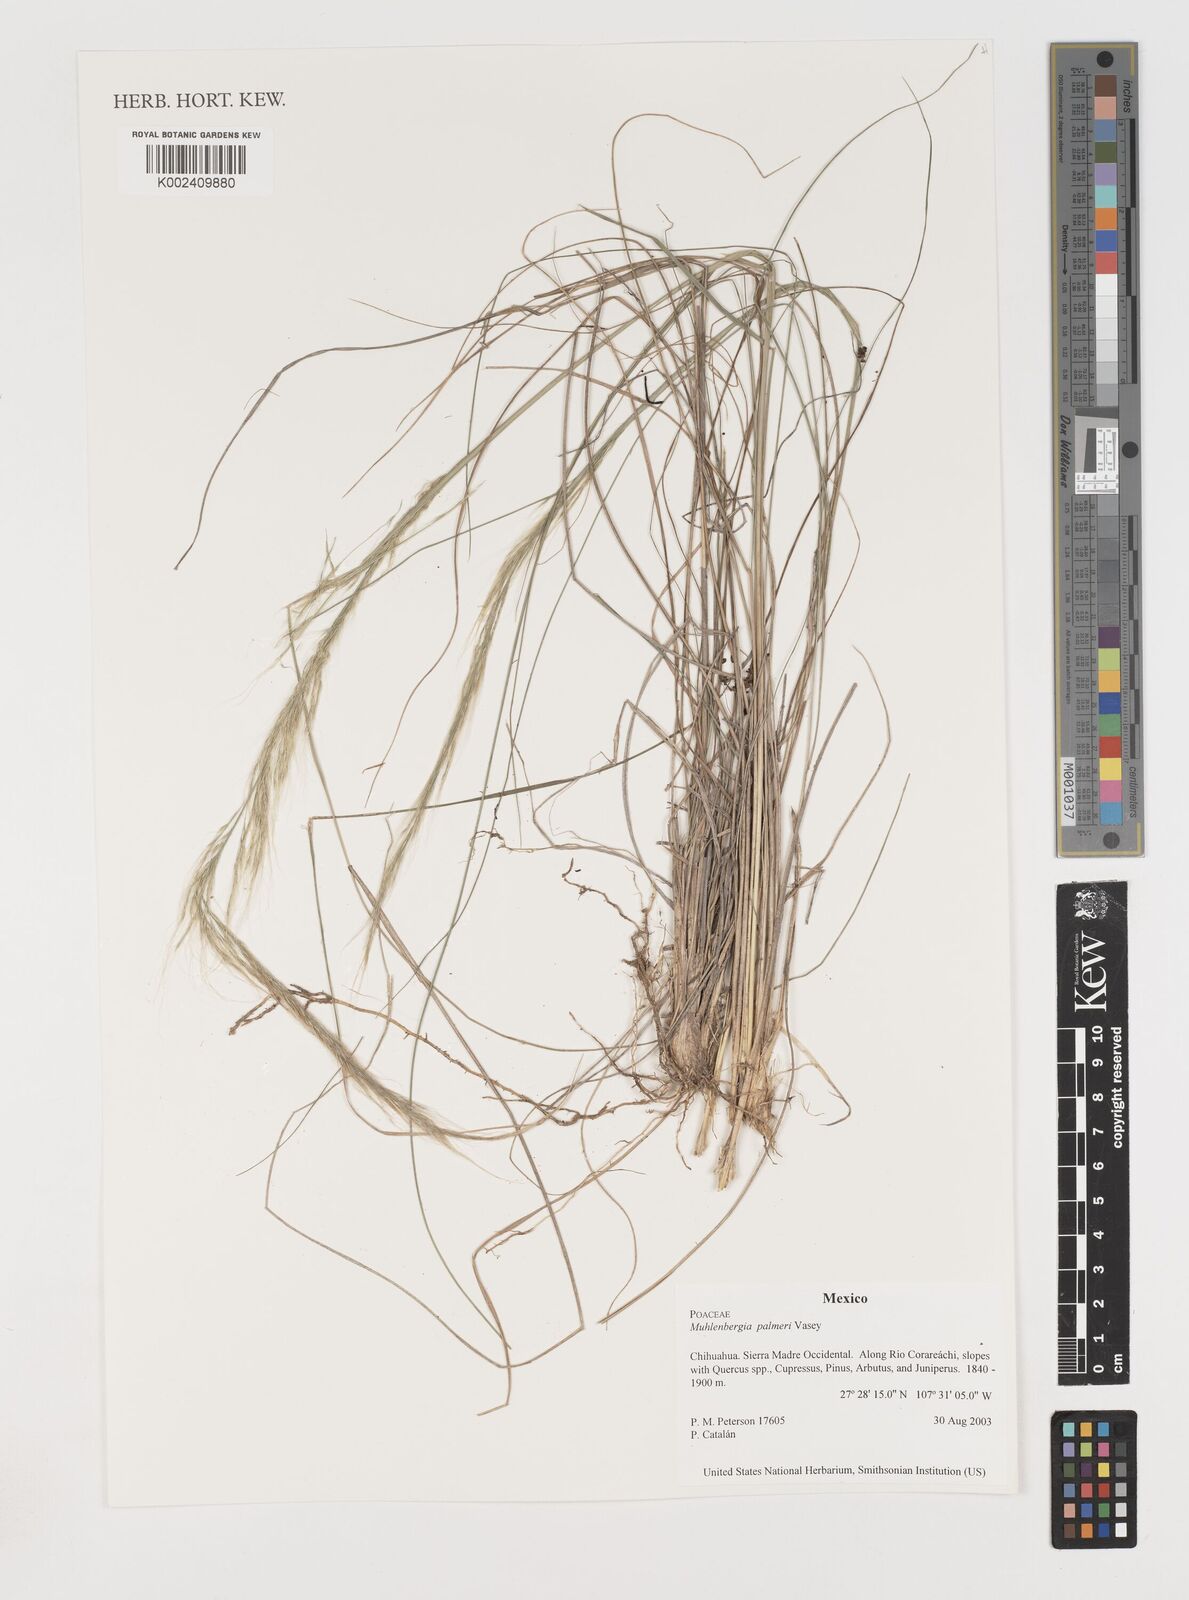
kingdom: Plantae
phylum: Tracheophyta
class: Liliopsida
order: Poales
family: Poaceae
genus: Muhlenbergia
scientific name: Muhlenbergia palmeri
